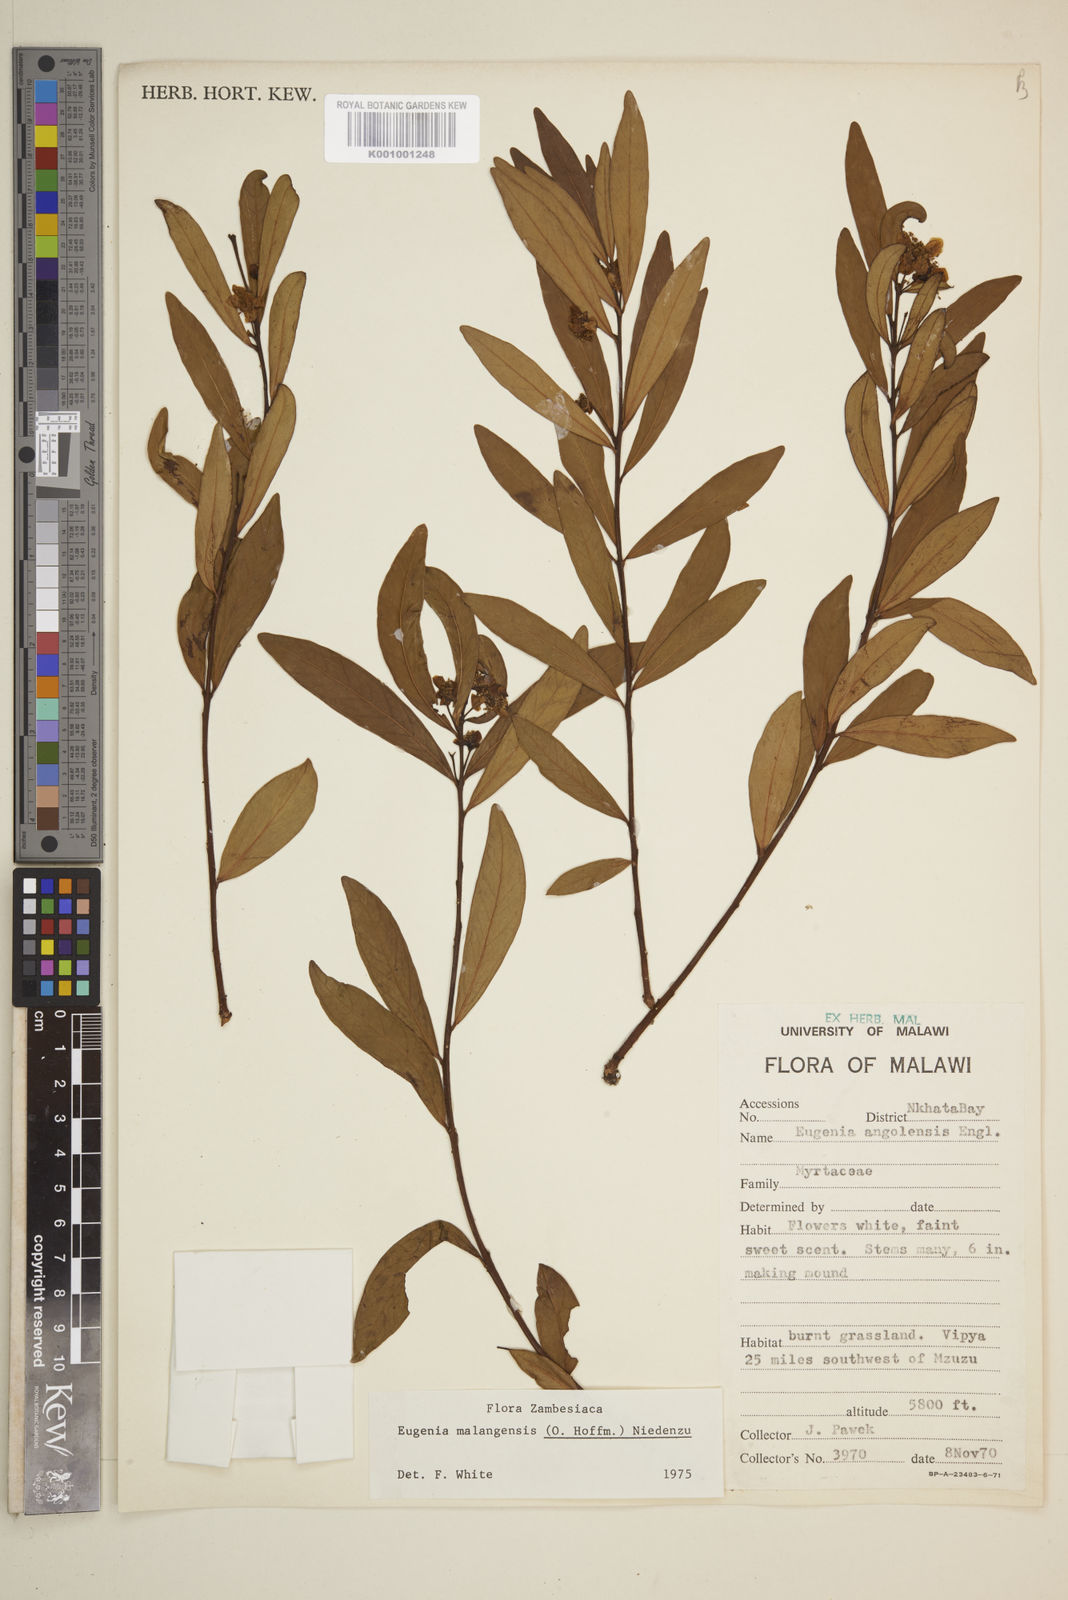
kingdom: Plantae
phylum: Tracheophyta
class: Magnoliopsida
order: Myrtales
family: Myrtaceae
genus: Eugenia
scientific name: Eugenia malangensis
